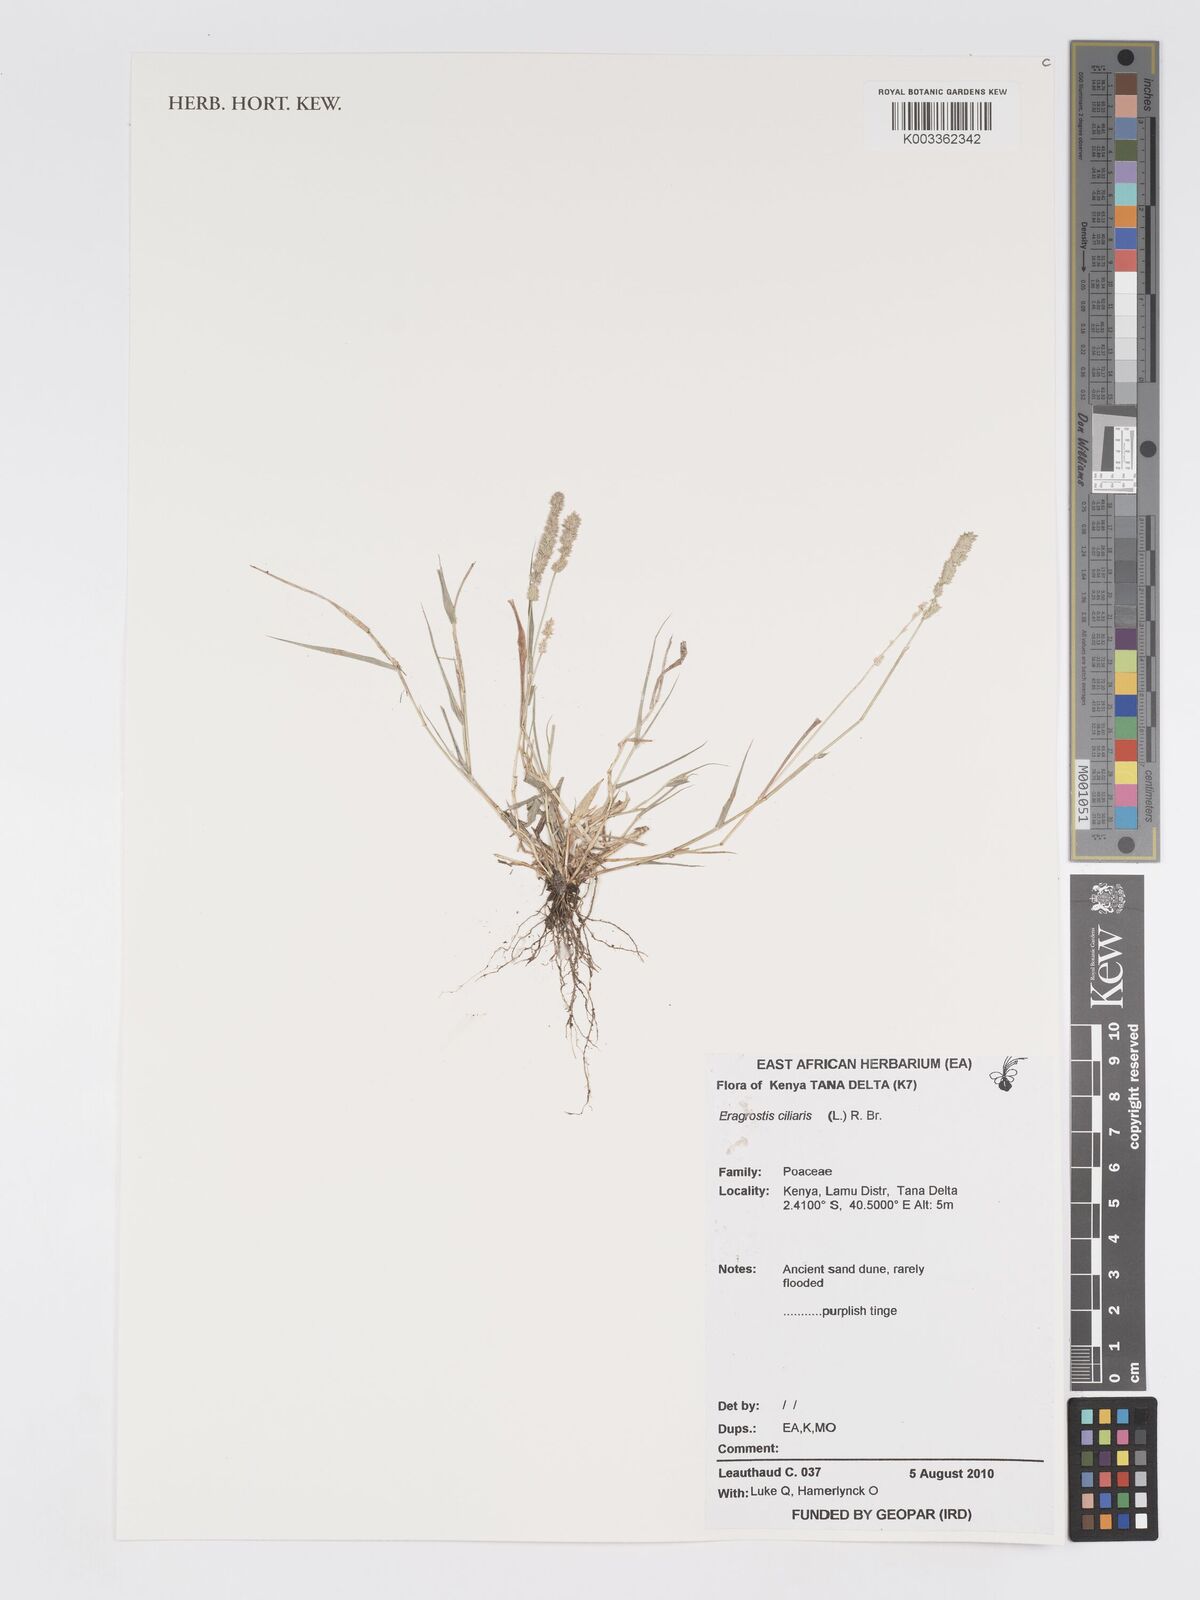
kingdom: Plantae
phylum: Tracheophyta
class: Liliopsida
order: Poales
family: Poaceae
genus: Eragrostis
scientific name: Eragrostis ciliaris
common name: Gophertail lovegrass
